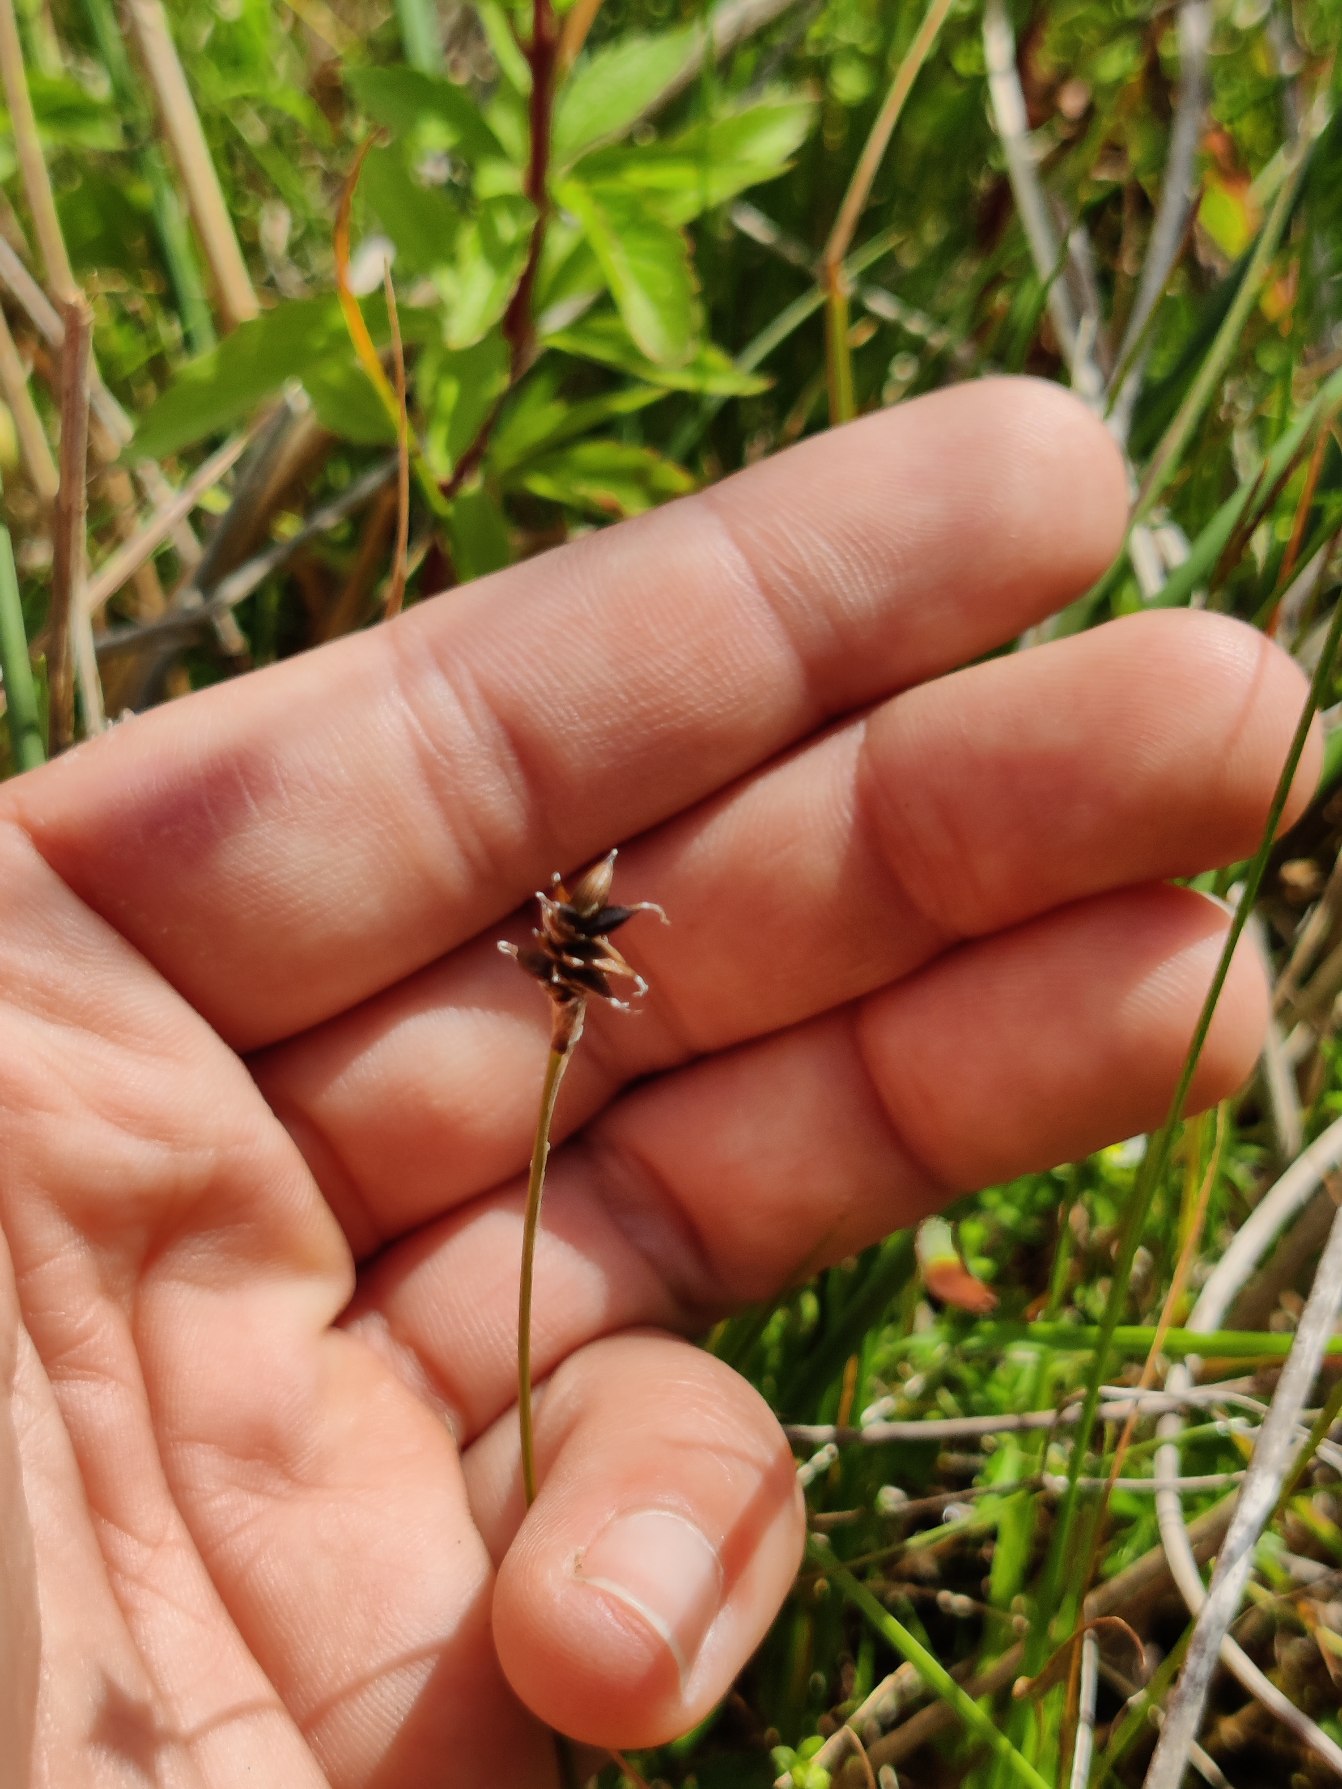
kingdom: Plantae
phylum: Tracheophyta
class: Liliopsida
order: Poales
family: Cyperaceae
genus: Carex
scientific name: Carex dioica
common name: Tvebo star
